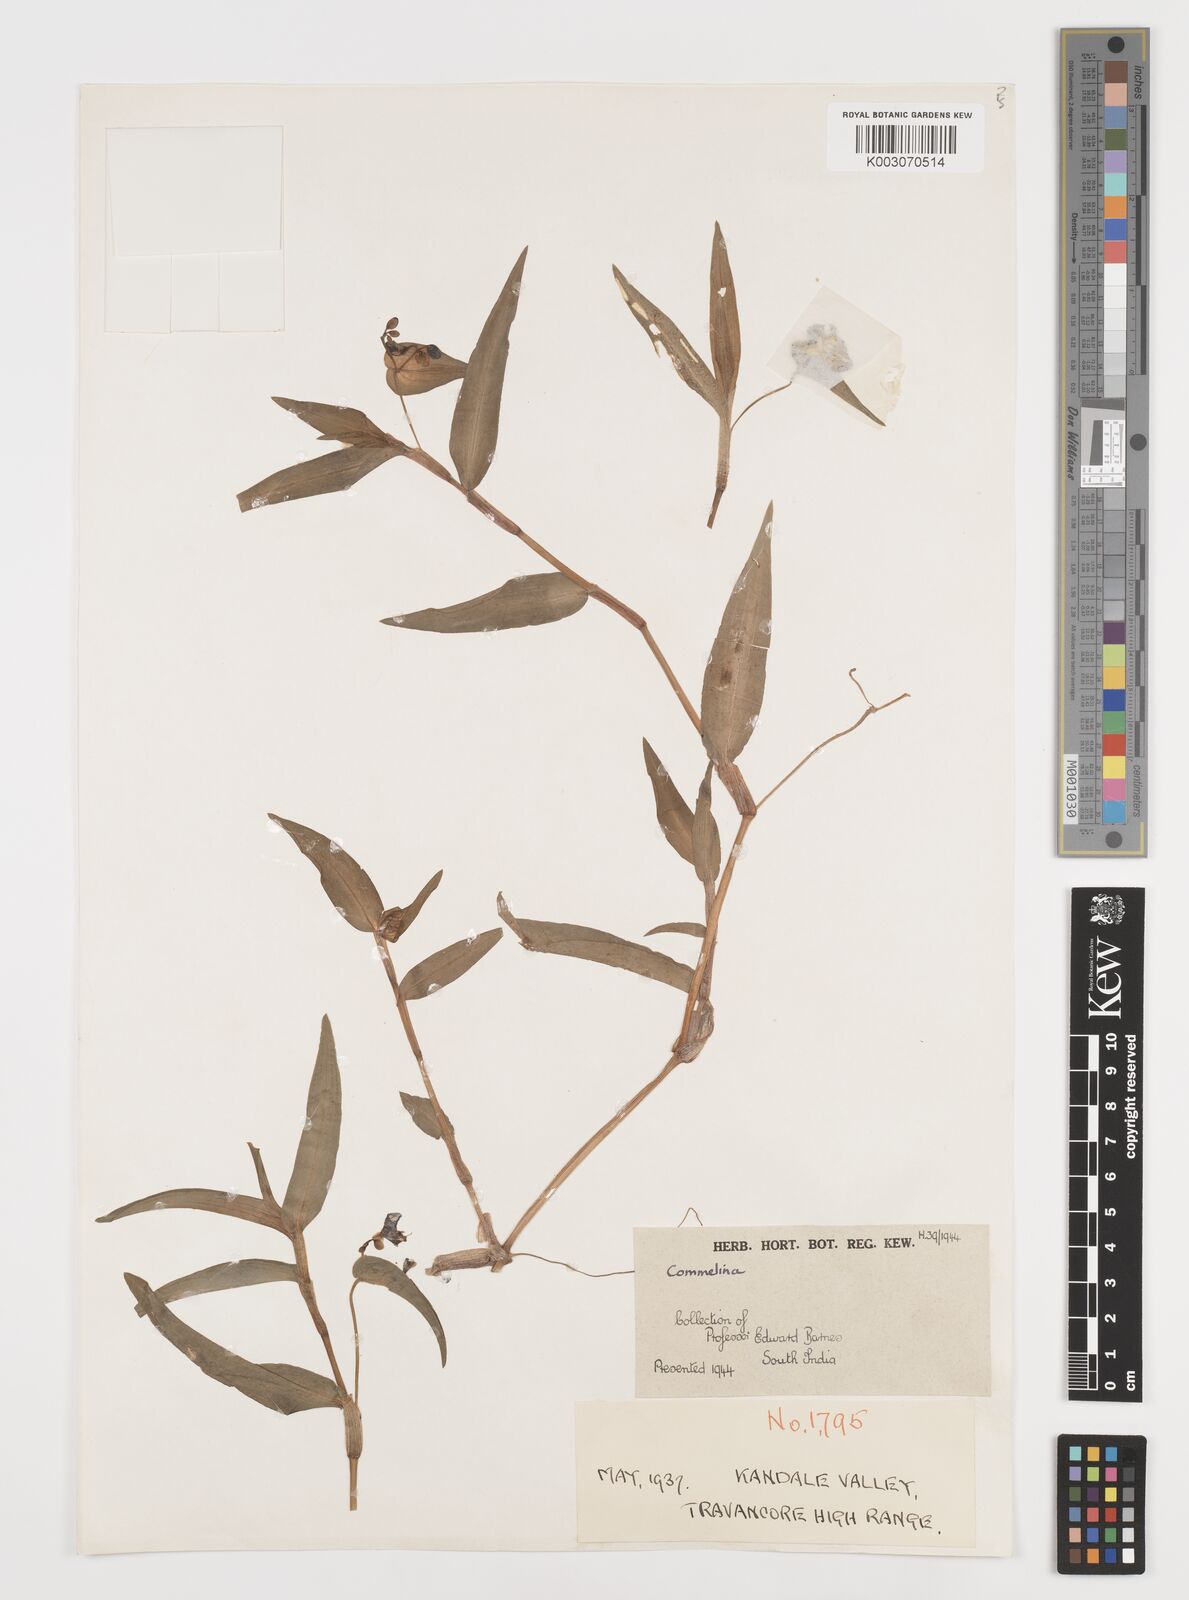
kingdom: Plantae
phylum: Tracheophyta
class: Liliopsida
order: Commelinales
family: Commelinaceae
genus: Commelina
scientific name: Commelina
